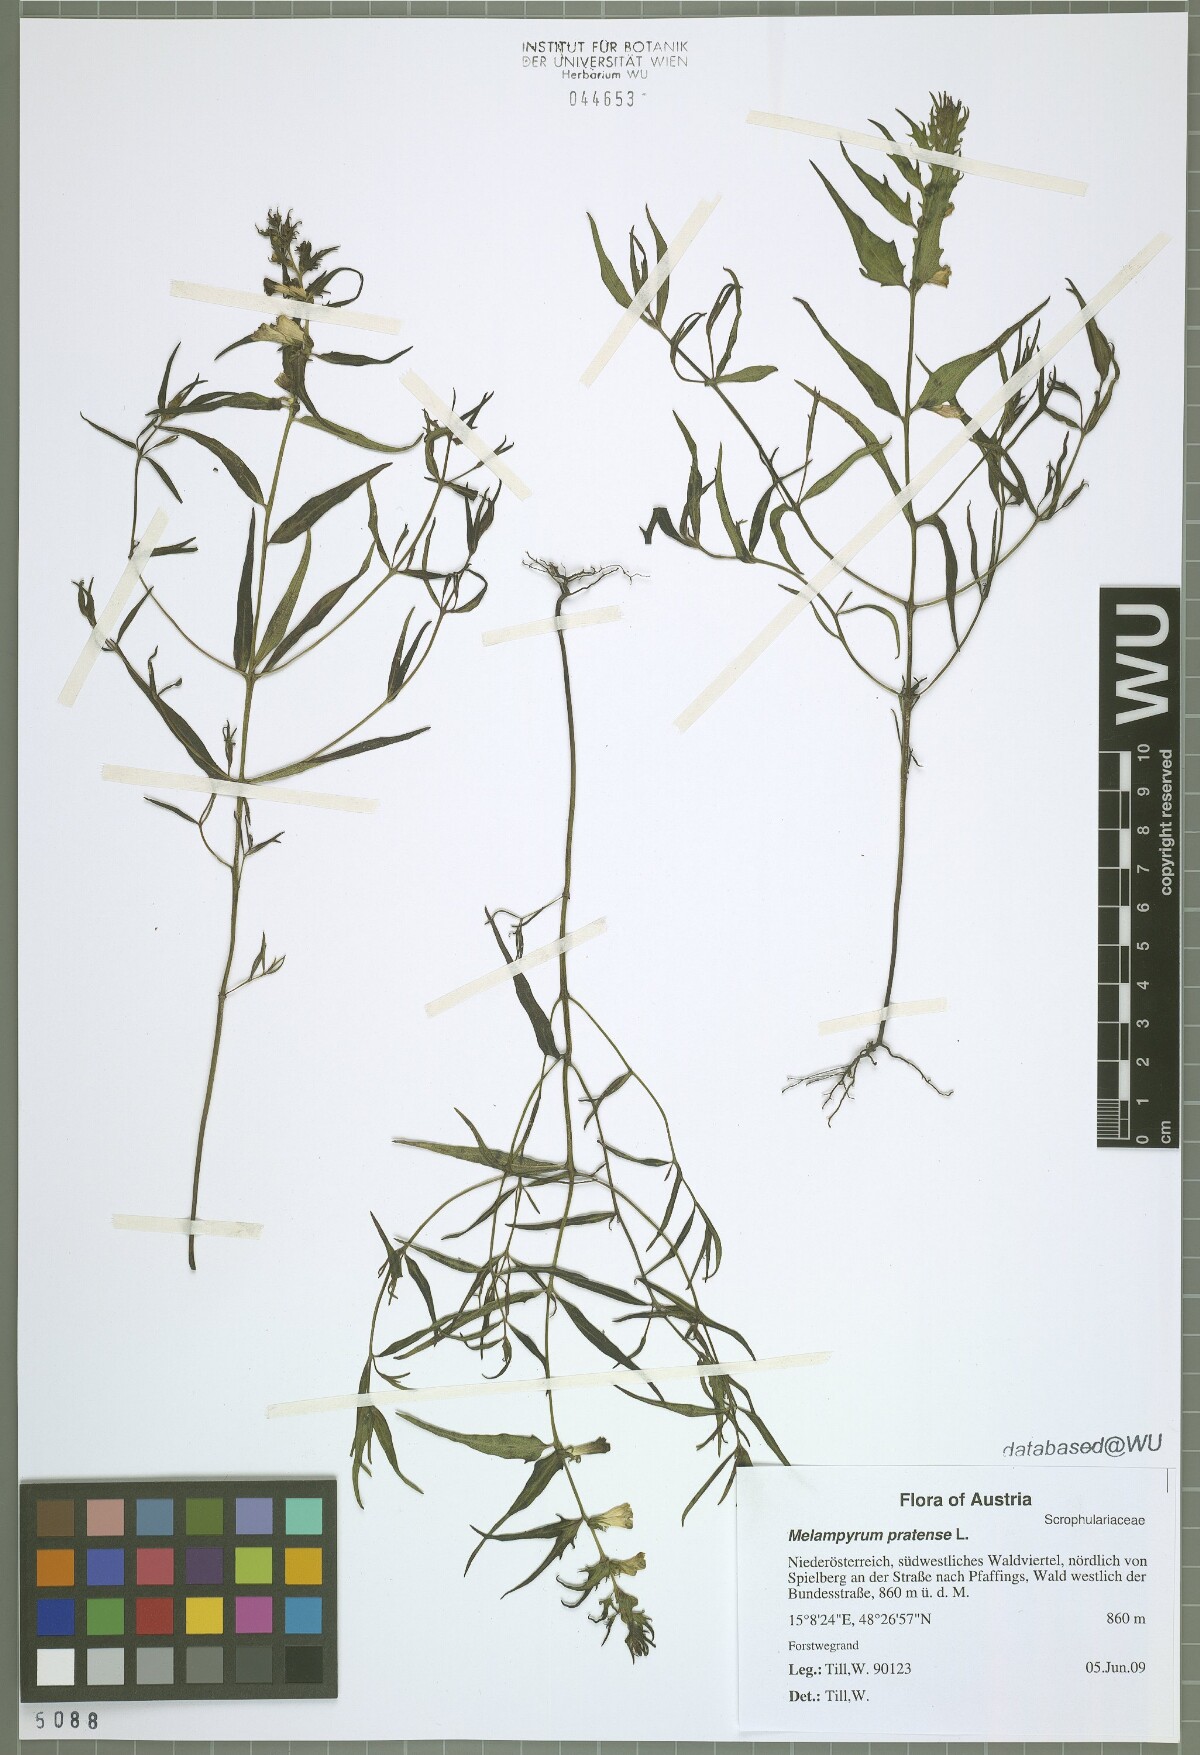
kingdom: Plantae
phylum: Tracheophyta
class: Magnoliopsida
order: Lamiales
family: Orobanchaceae
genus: Melampyrum
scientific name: Melampyrum pratense
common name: Common cow-wheat
